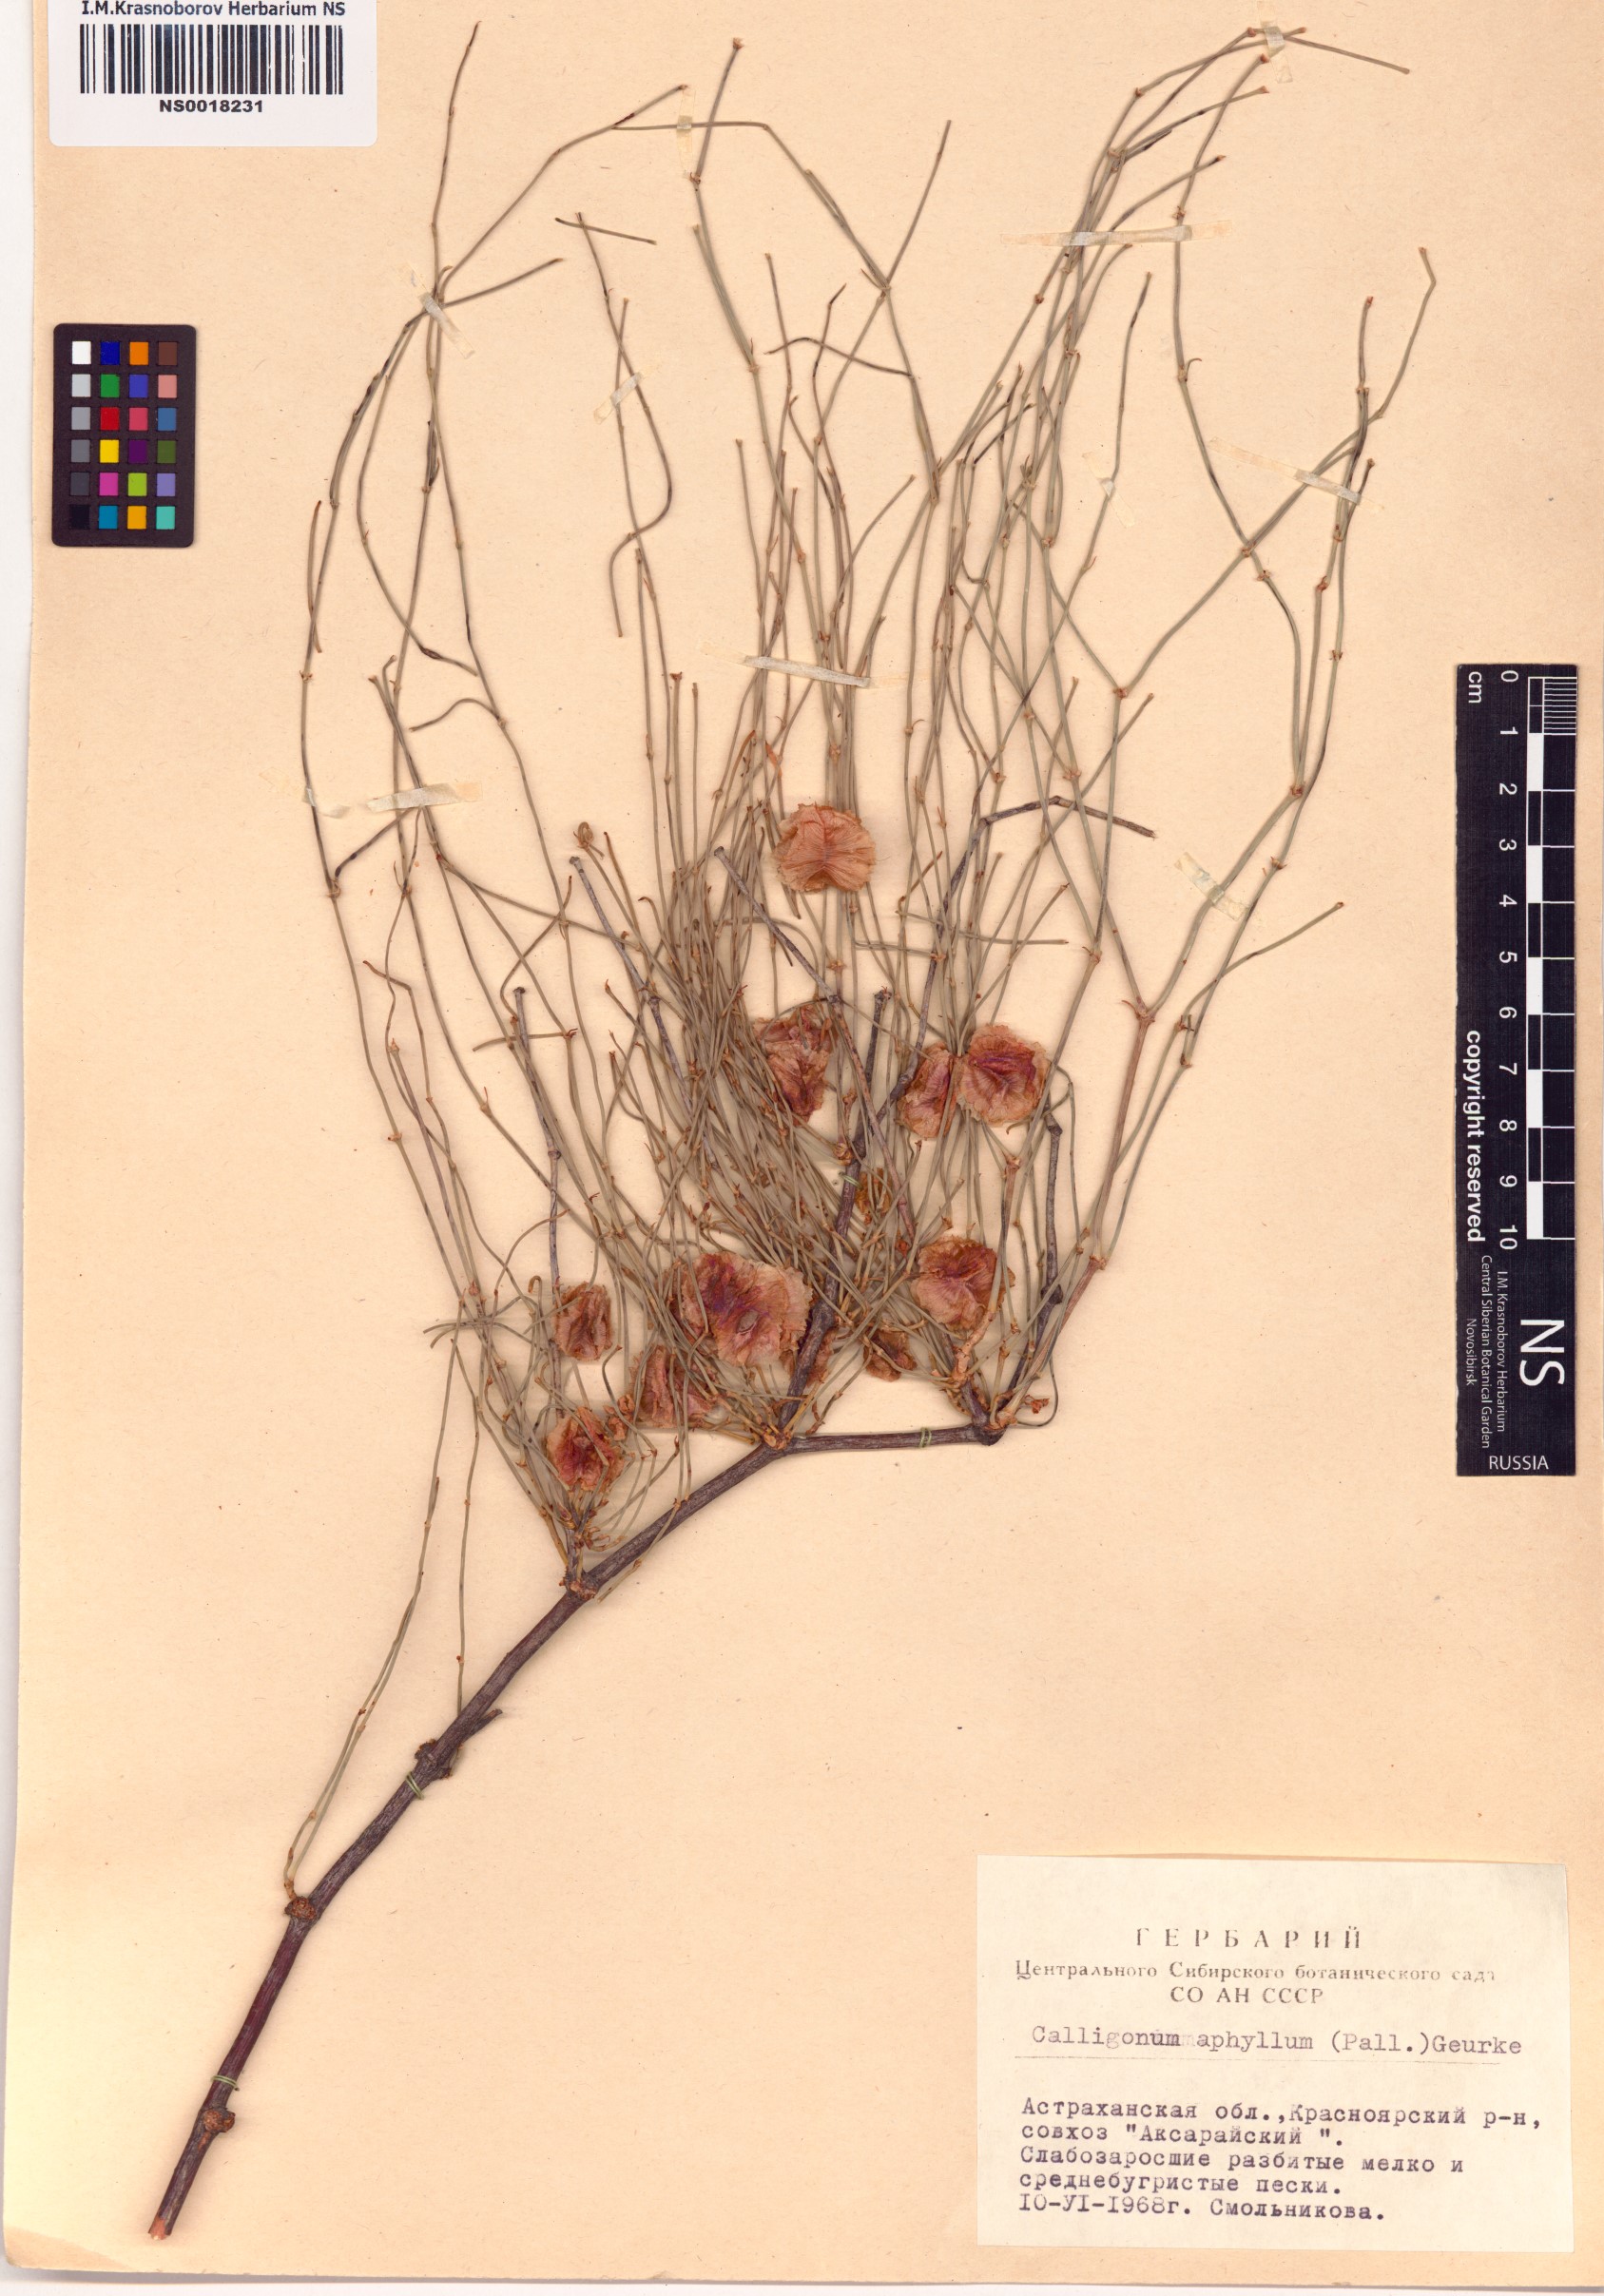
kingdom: Plantae
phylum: Tracheophyta
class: Magnoliopsida
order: Caryophyllales
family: Polygonaceae
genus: Calligonum
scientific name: Calligonum aphyllum
